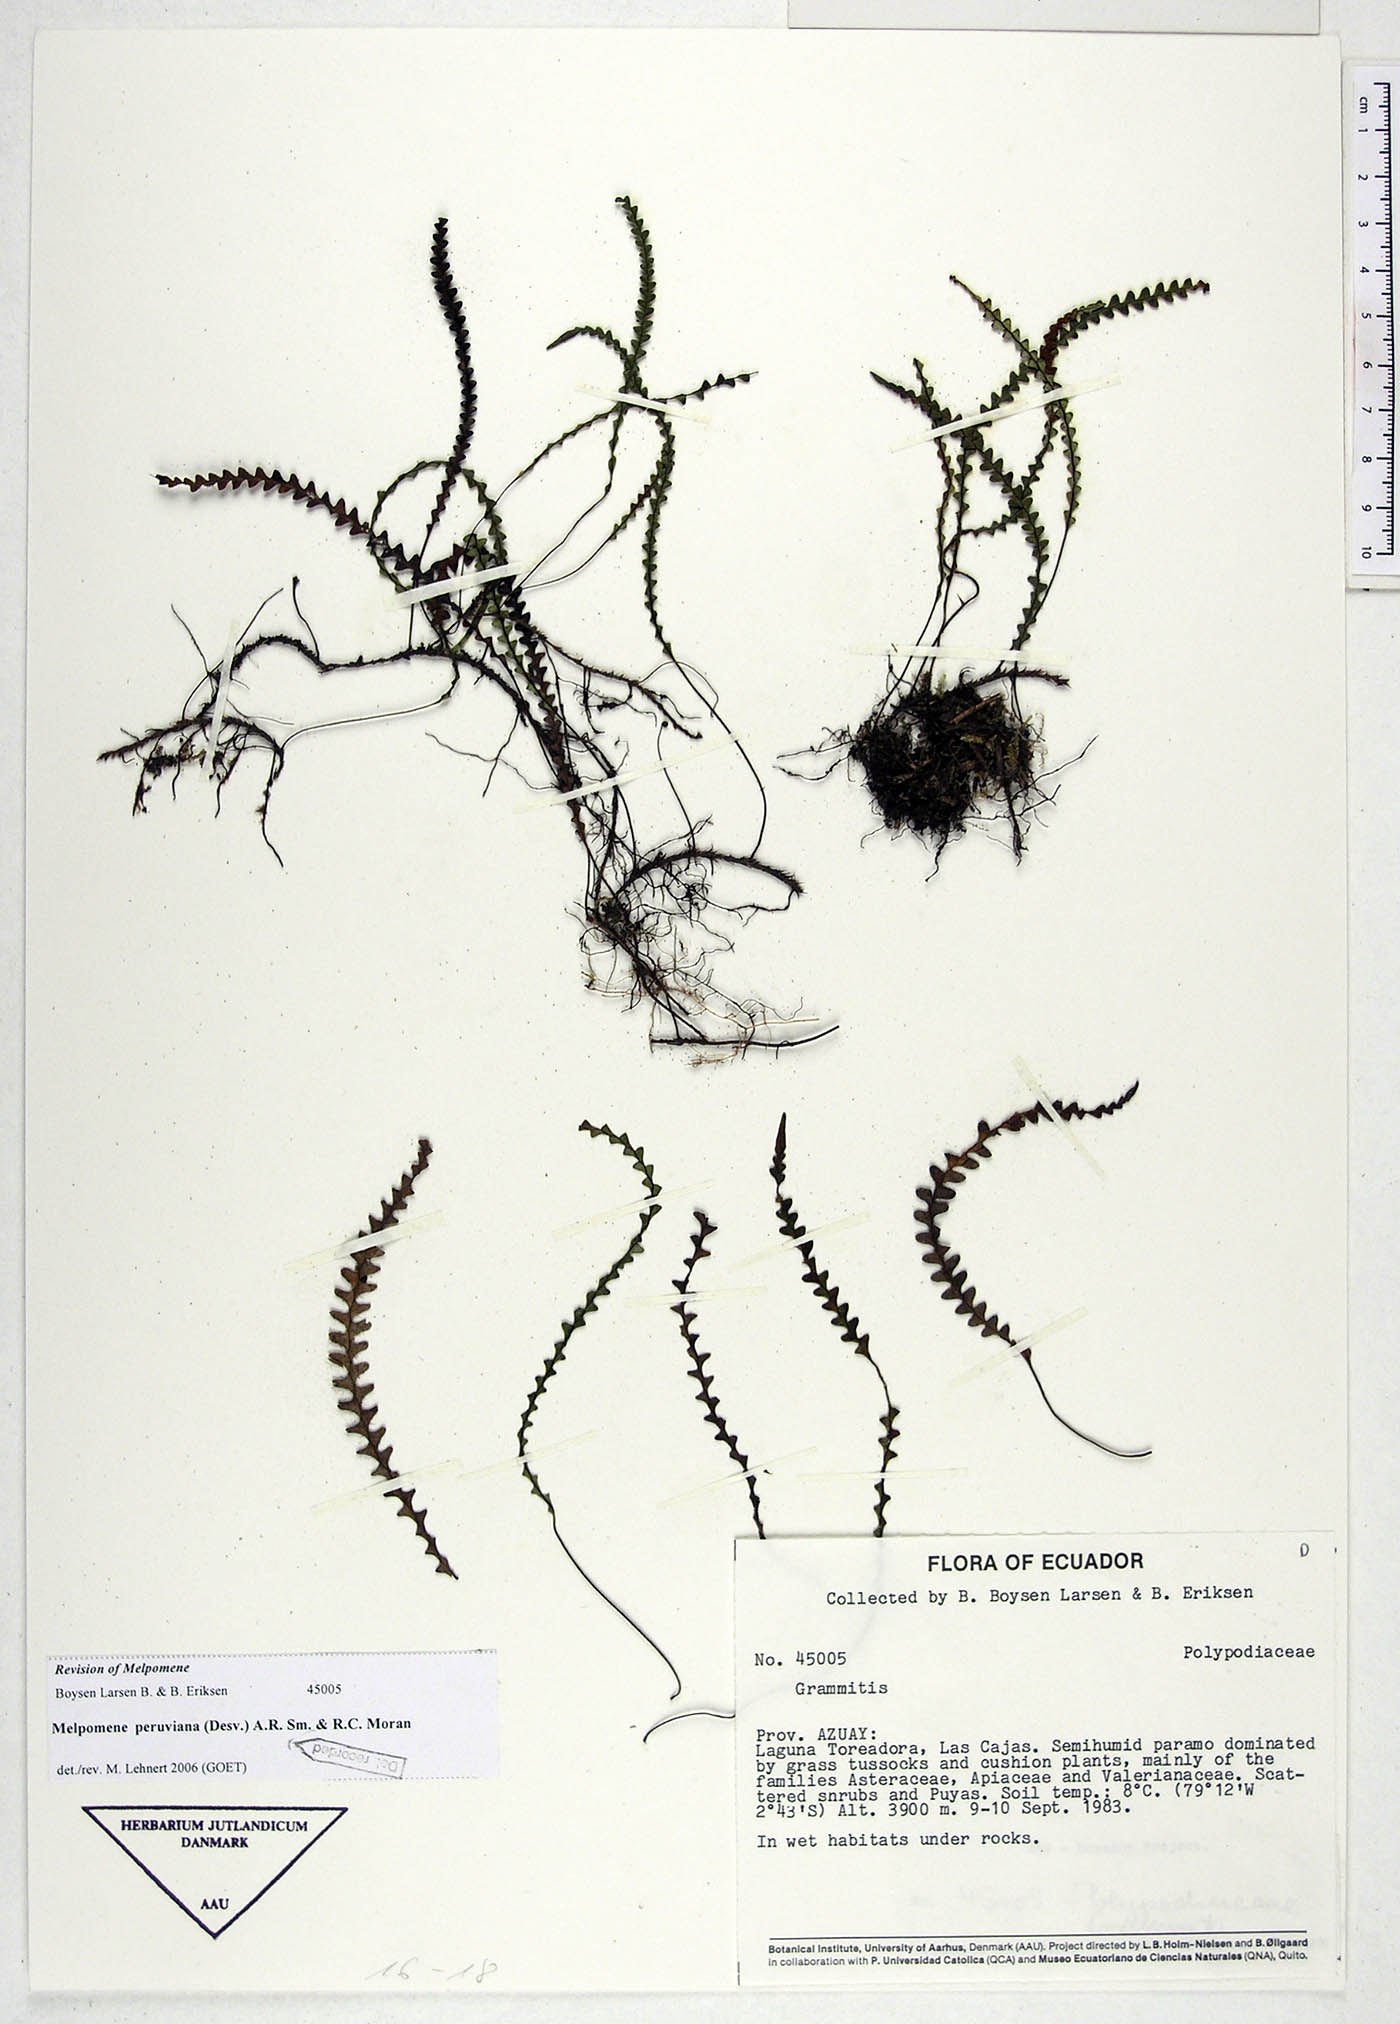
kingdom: Plantae
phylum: Tracheophyta
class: Polypodiopsida
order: Polypodiales
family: Polypodiaceae
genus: Melpomene
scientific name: Melpomene peruviana
